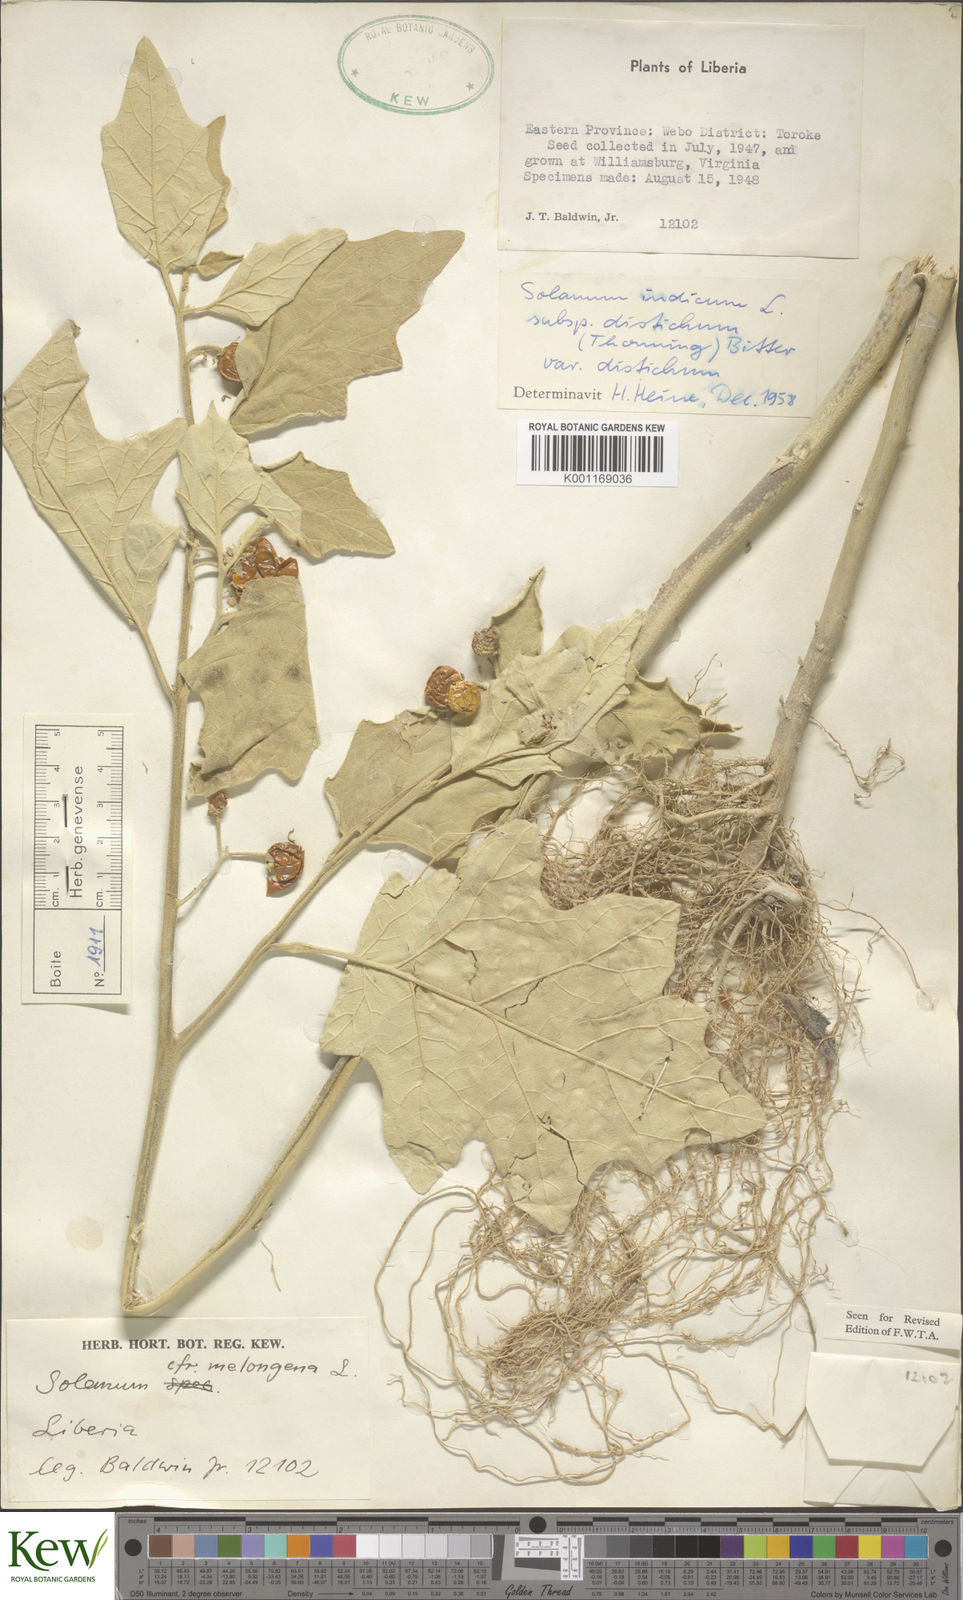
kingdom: Plantae
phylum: Tracheophyta
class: Magnoliopsida
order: Solanales
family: Solanaceae
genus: Solanum
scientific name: Solanum anguivi
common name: Forest bitterberry
